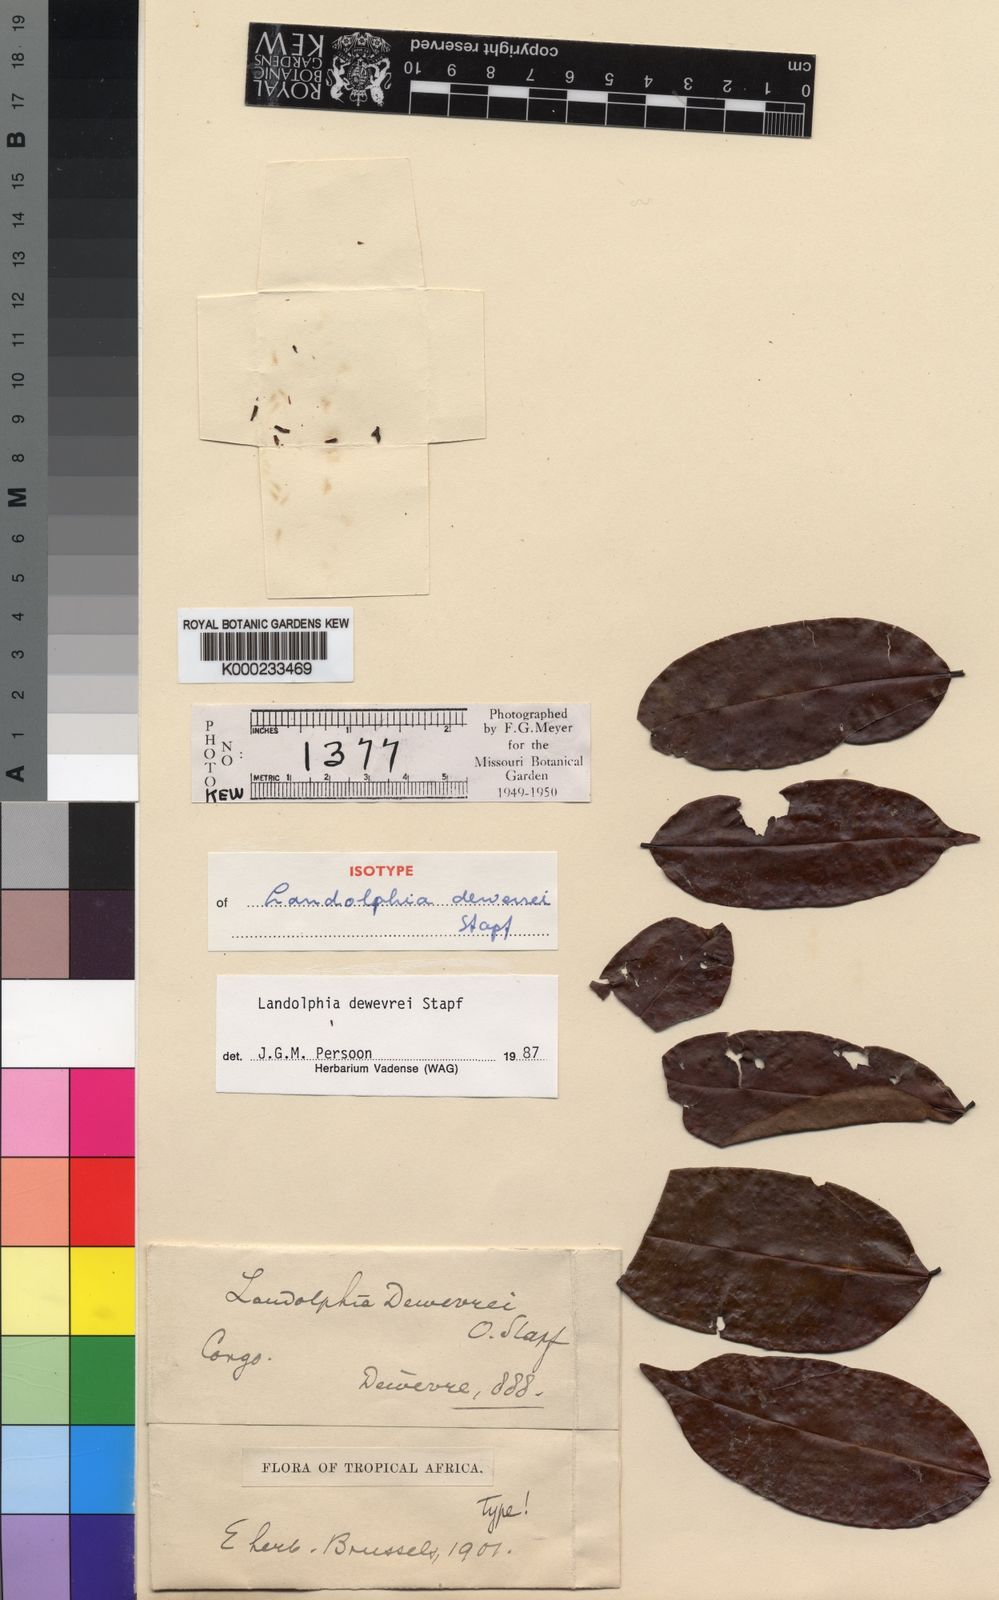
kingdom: Plantae
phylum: Tracheophyta
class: Magnoliopsida
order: Gentianales
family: Apocynaceae
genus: Landolphia
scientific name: Landolphia dewevrei
